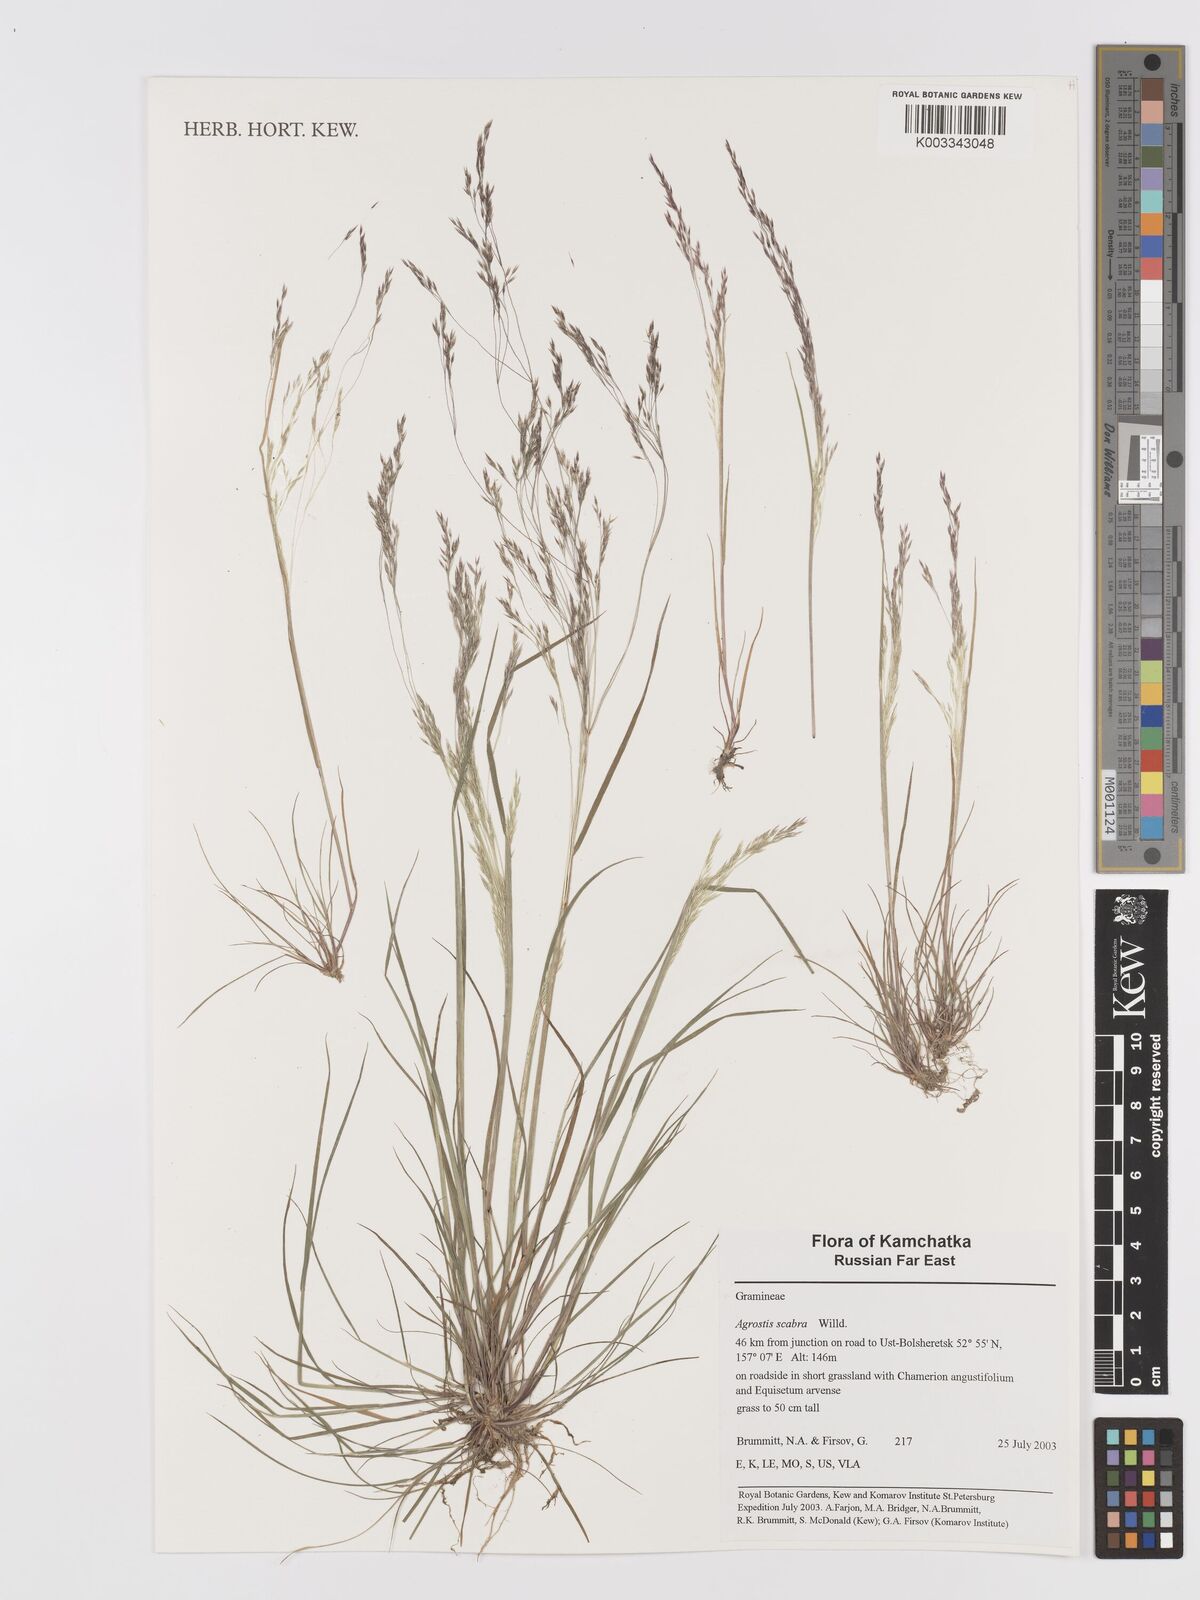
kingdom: Plantae
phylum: Tracheophyta
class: Liliopsida
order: Poales
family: Poaceae
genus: Agrostis
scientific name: Agrostis scabra
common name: Rough bent
